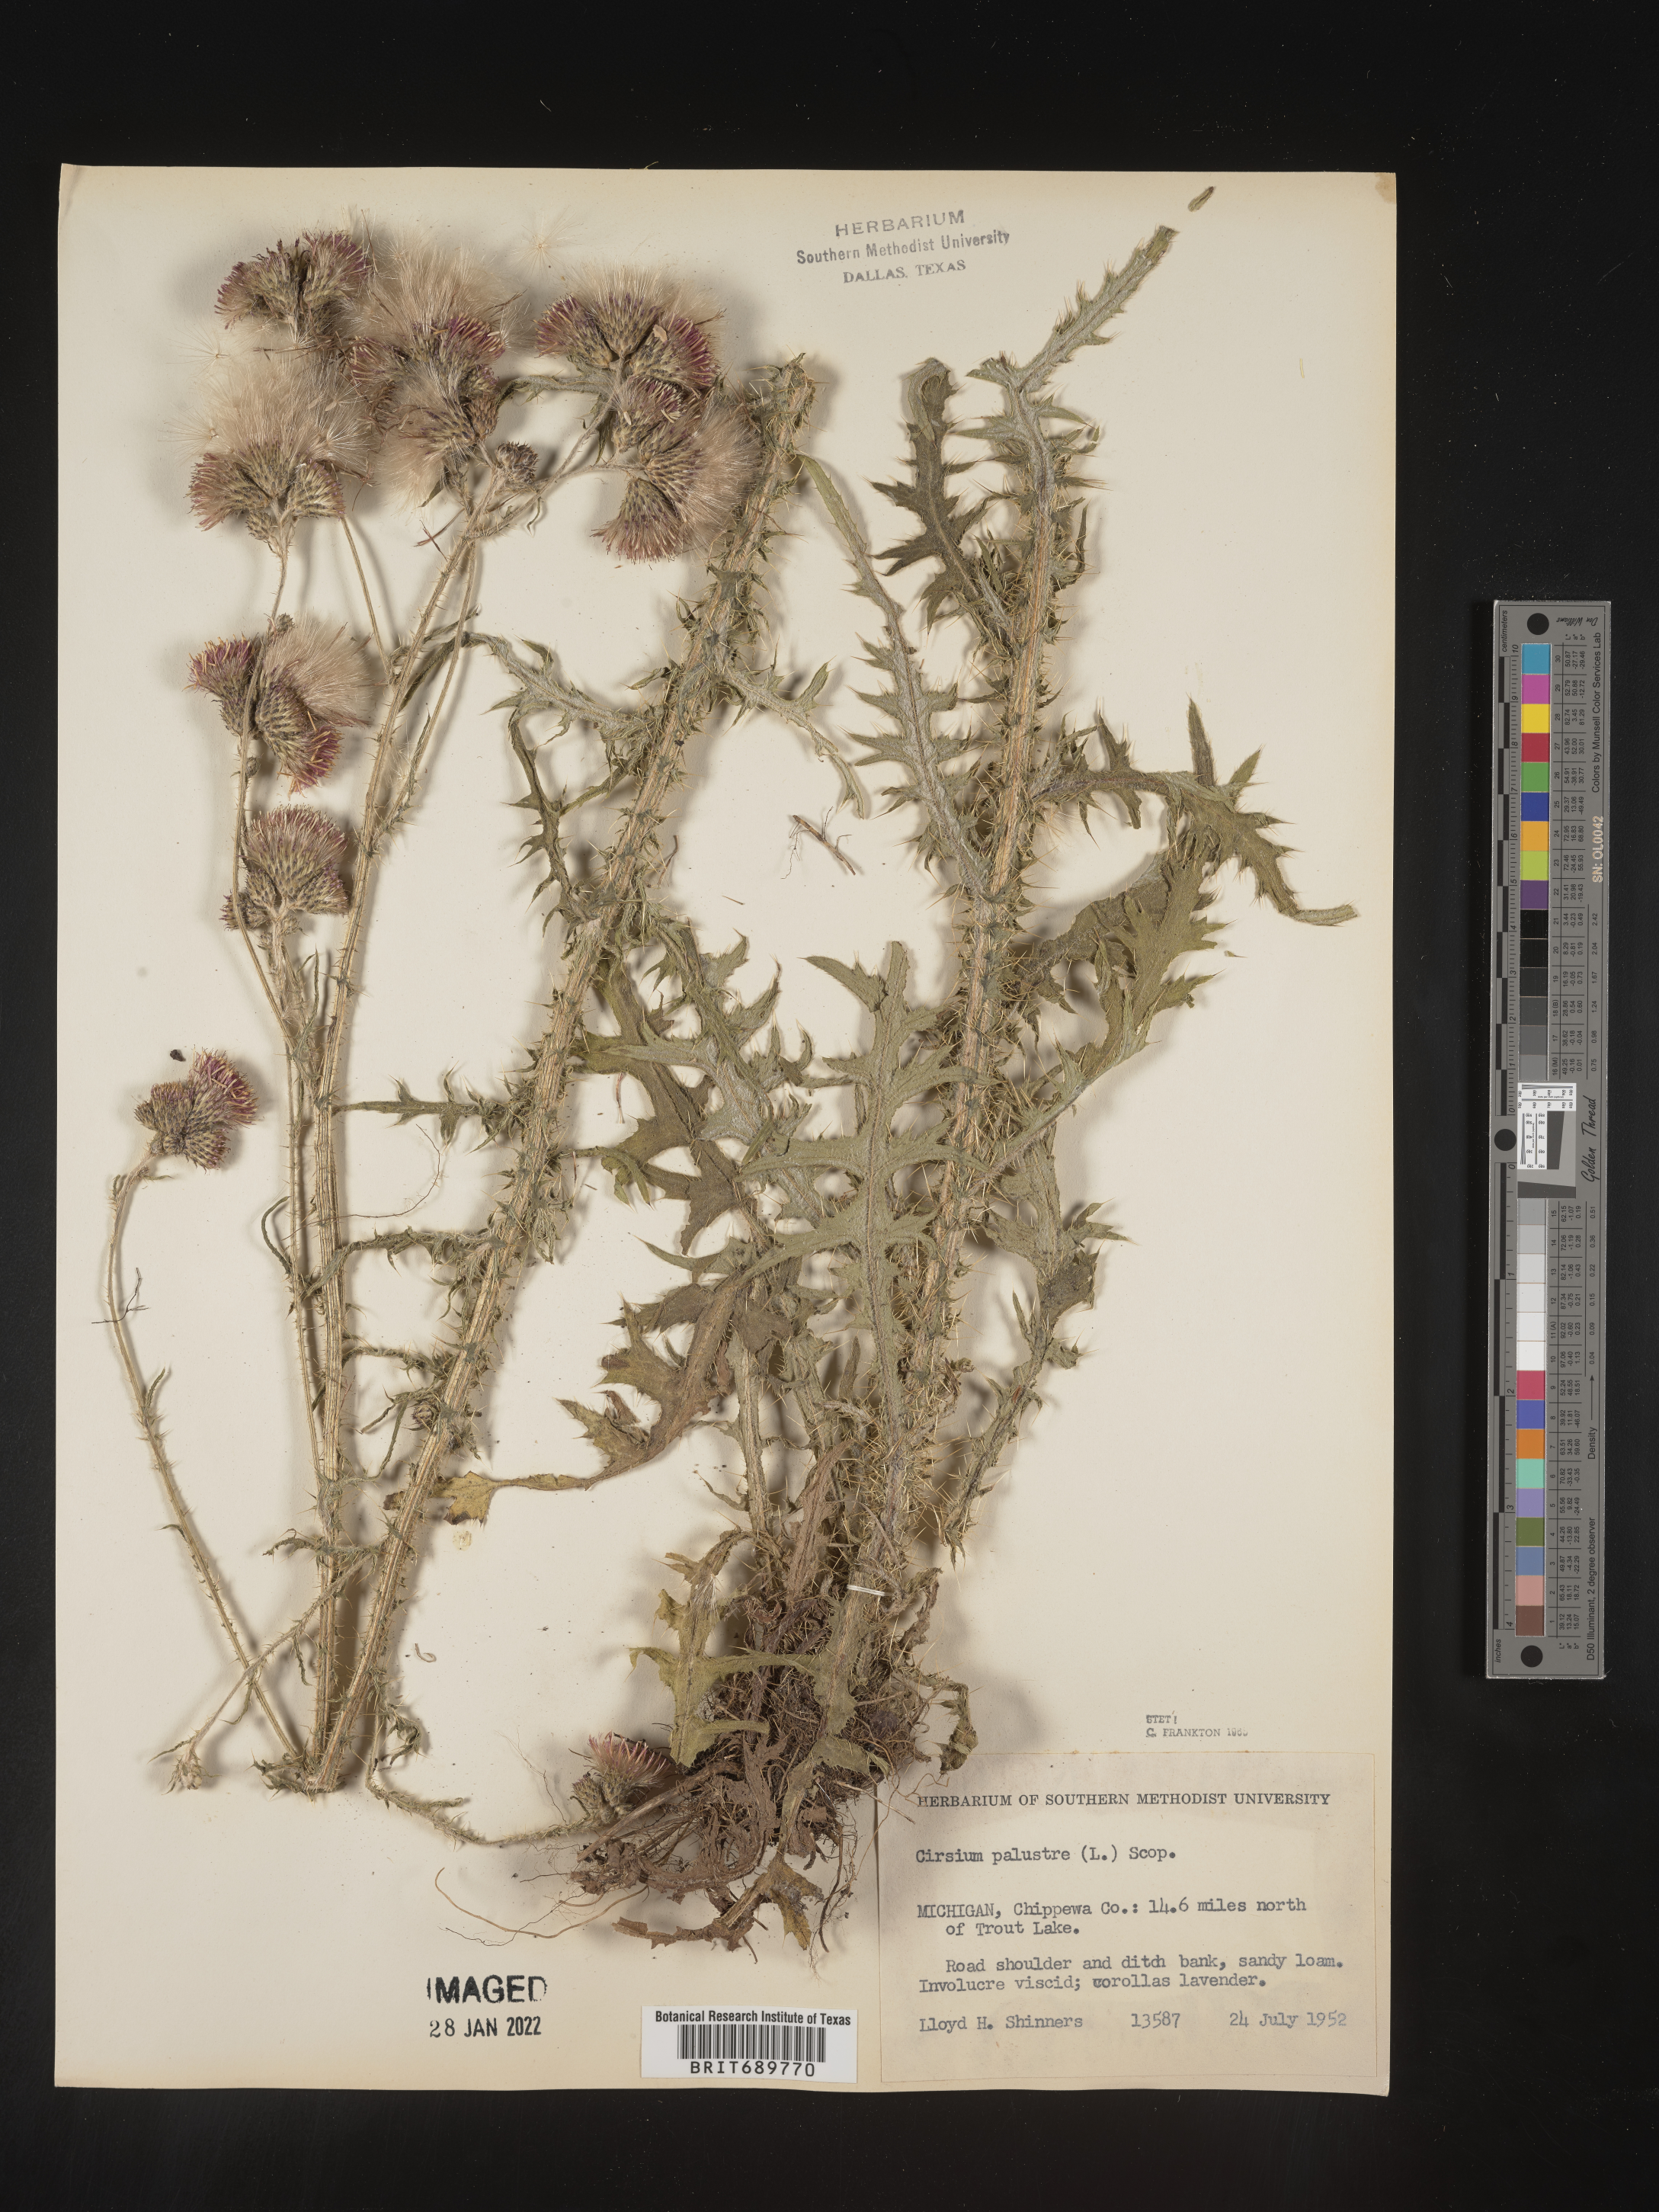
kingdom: Plantae
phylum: Tracheophyta
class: Magnoliopsida
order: Asterales
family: Asteraceae
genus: Cirsium
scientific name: Cirsium palustre
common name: Marsh thistle
